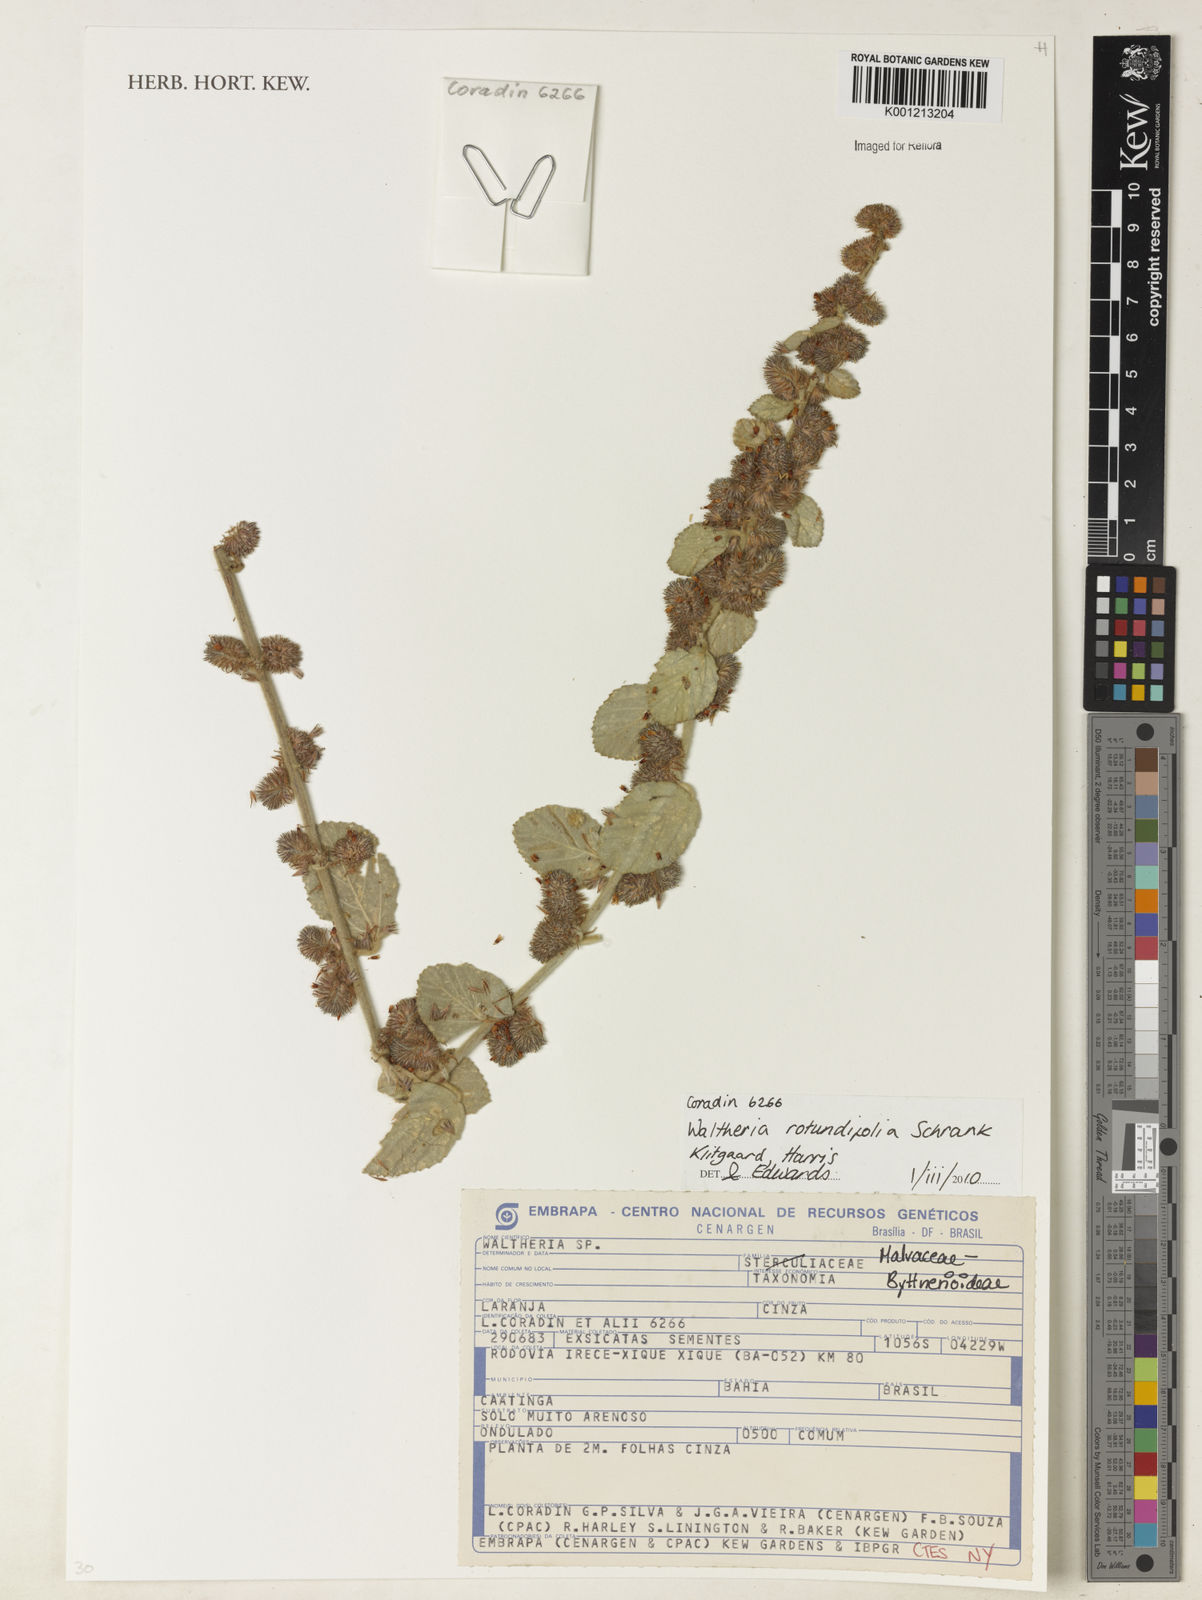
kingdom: Plantae
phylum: Tracheophyta
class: Magnoliopsida
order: Malvales
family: Malvaceae
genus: Waltheria
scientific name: Waltheria rotundifolia
